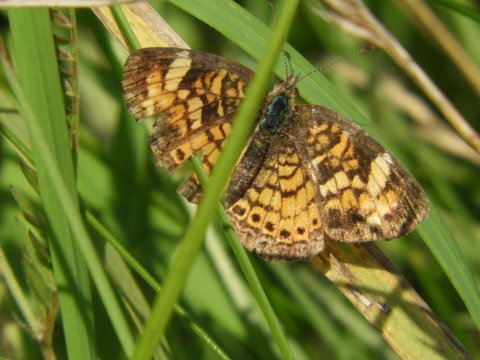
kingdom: Animalia
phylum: Arthropoda
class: Insecta
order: Lepidoptera
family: Nymphalidae
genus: Phyciodes
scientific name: Phyciodes
